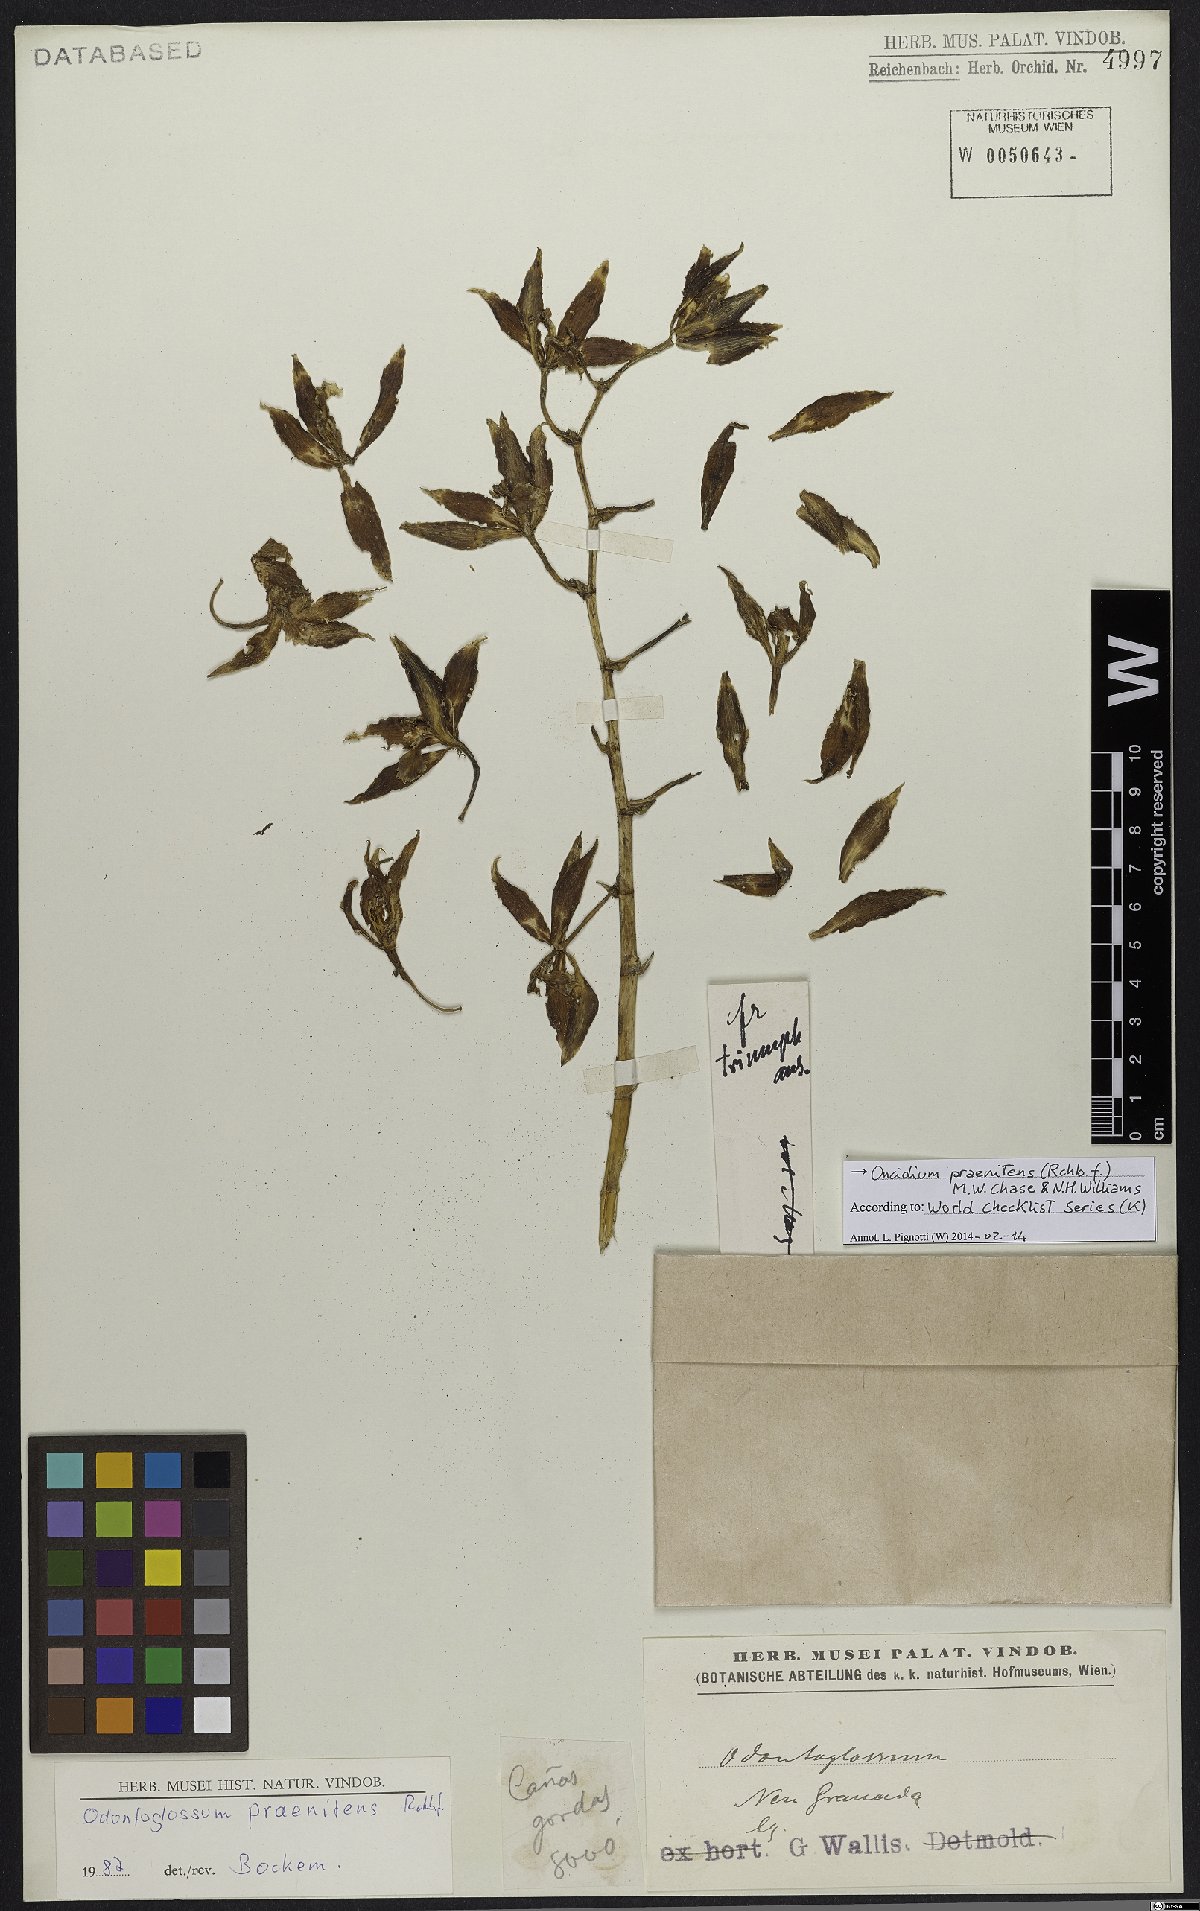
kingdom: Plantae
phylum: Tracheophyta
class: Liliopsida
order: Asparagales
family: Orchidaceae
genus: Oncidium
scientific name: Oncidium praenitens
